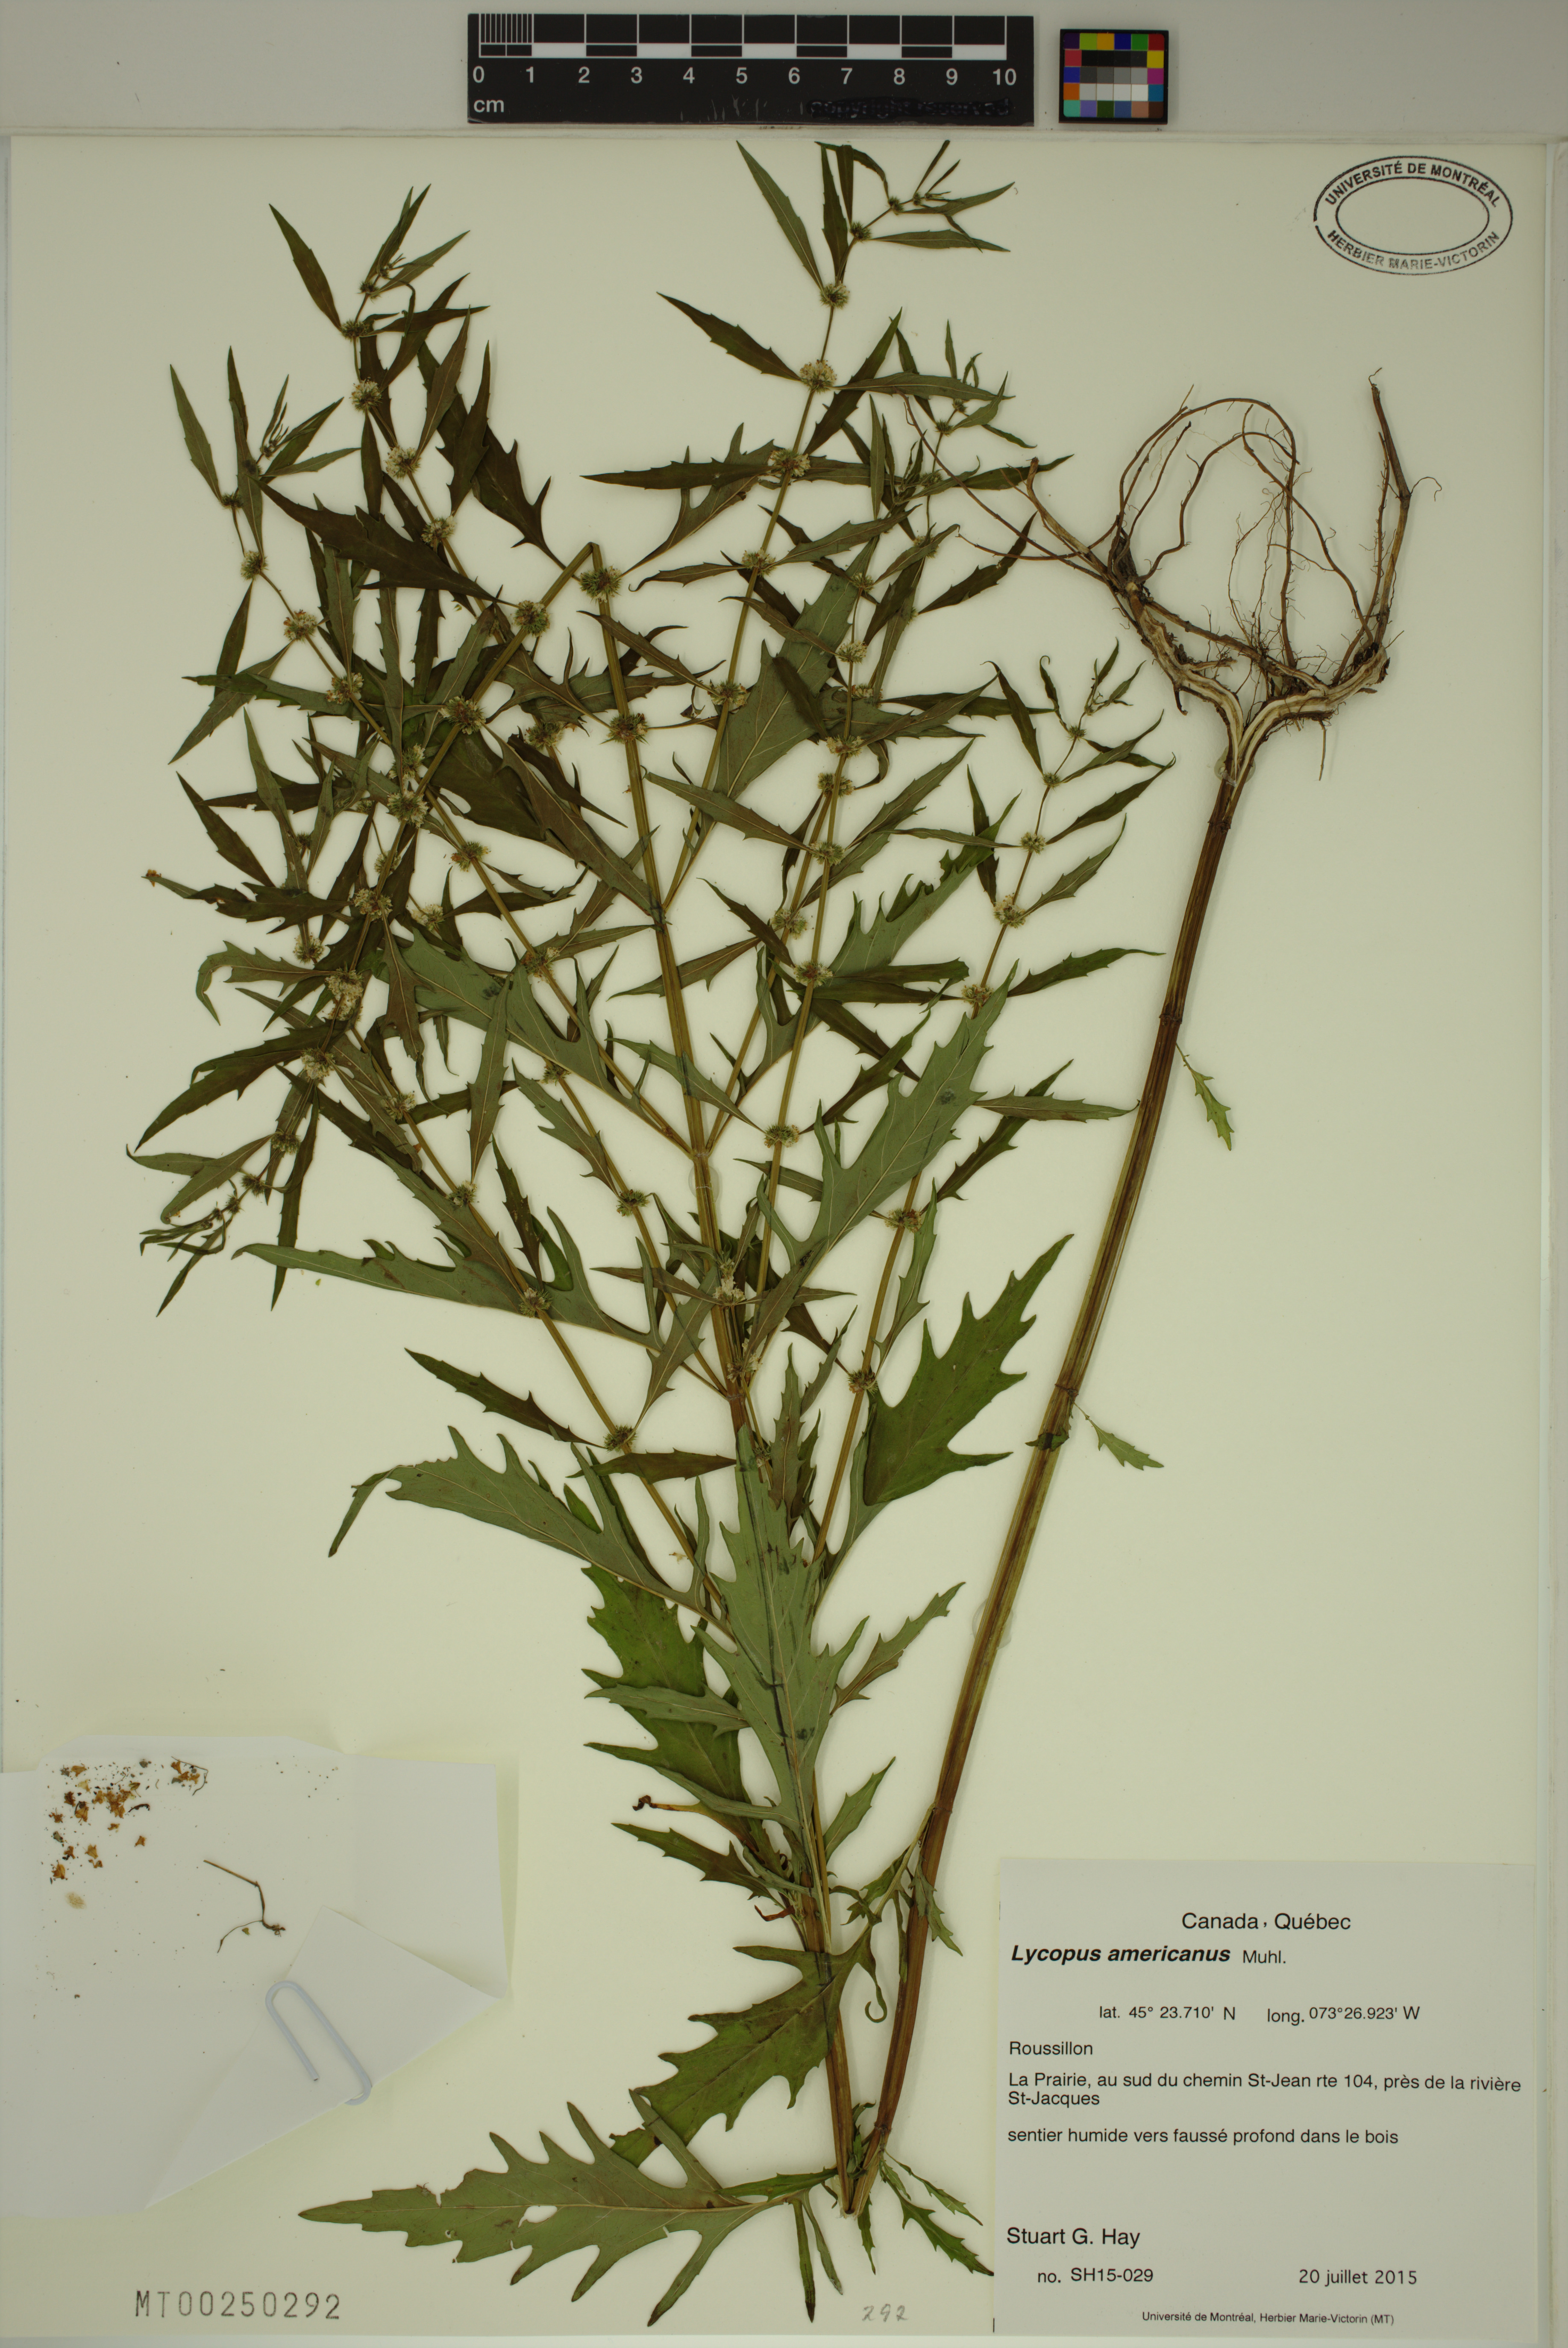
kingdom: Plantae
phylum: Tracheophyta
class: Magnoliopsida
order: Lamiales
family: Lamiaceae
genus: Lycopus
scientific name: Lycopus americanus
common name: American bugleweed
